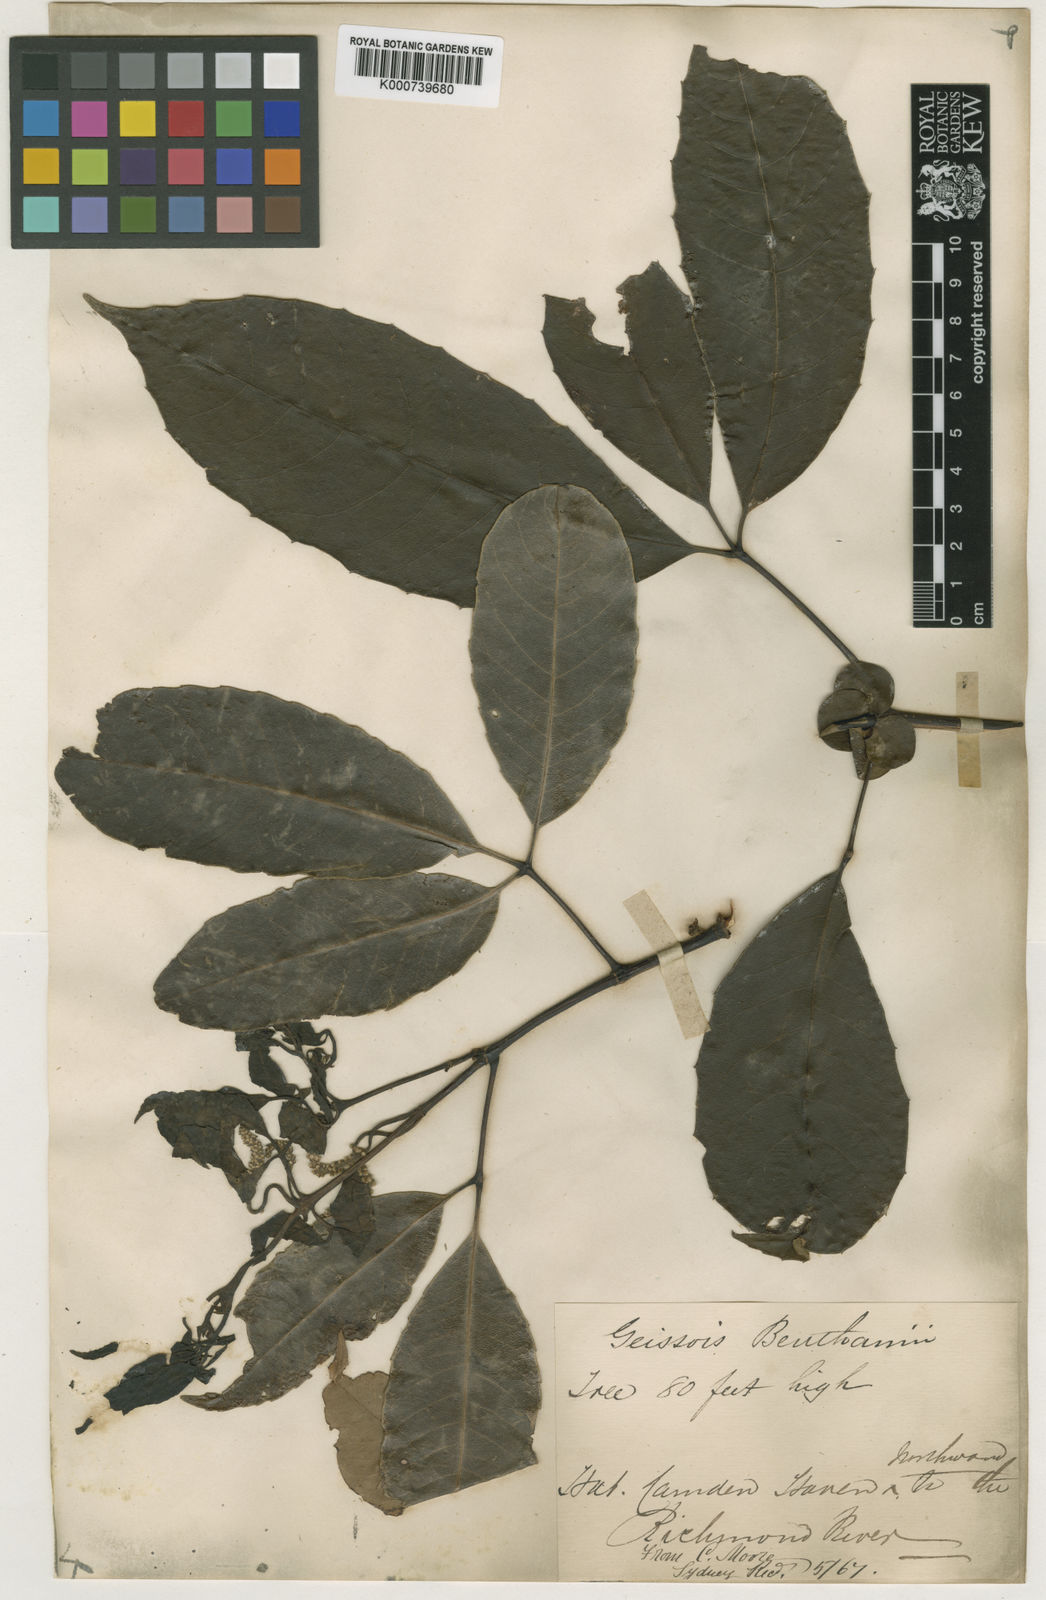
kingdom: Plantae
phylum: Tracheophyta
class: Magnoliopsida
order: Oxalidales
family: Cunoniaceae
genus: Karrabina
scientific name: Karrabina benthamiana
